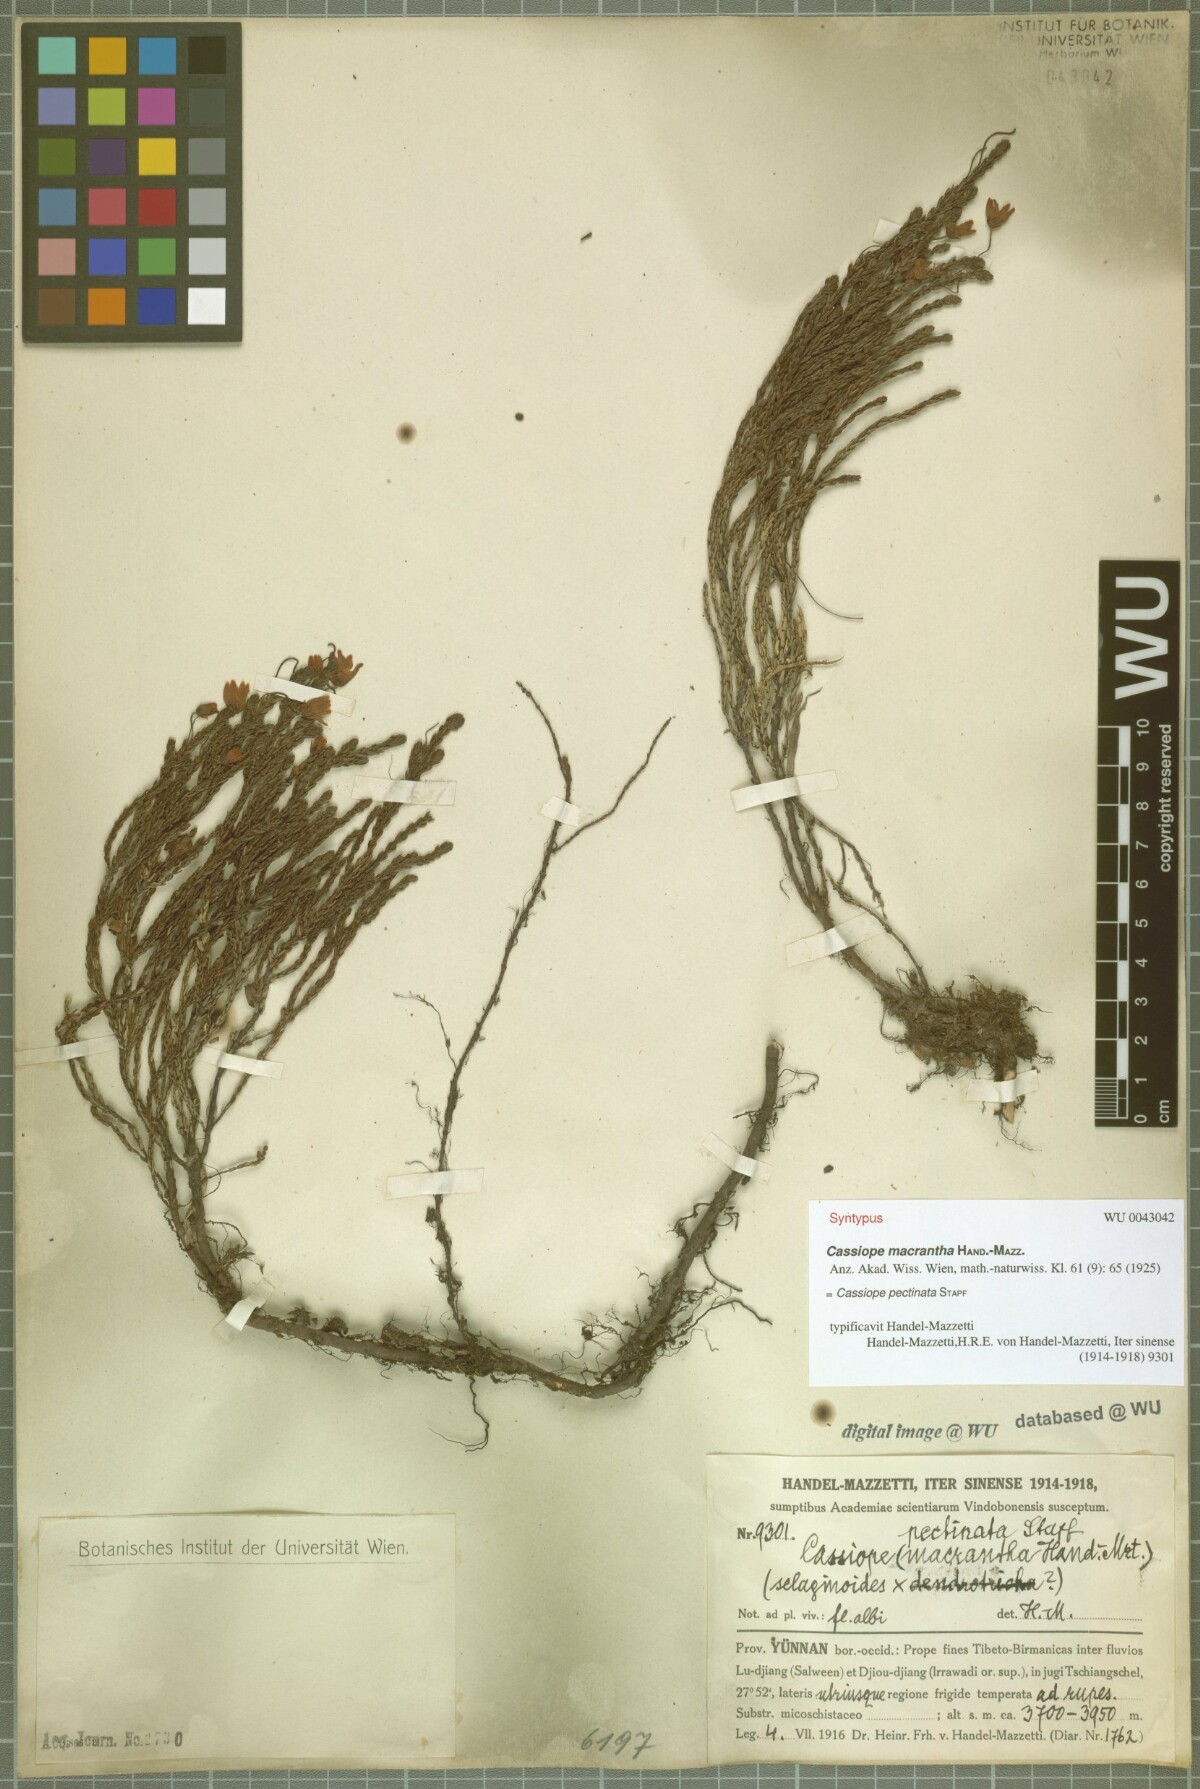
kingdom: Plantae
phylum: Tracheophyta
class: Magnoliopsida
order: Ericales
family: Ericaceae
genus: Cassiope
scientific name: Cassiope pectinata
